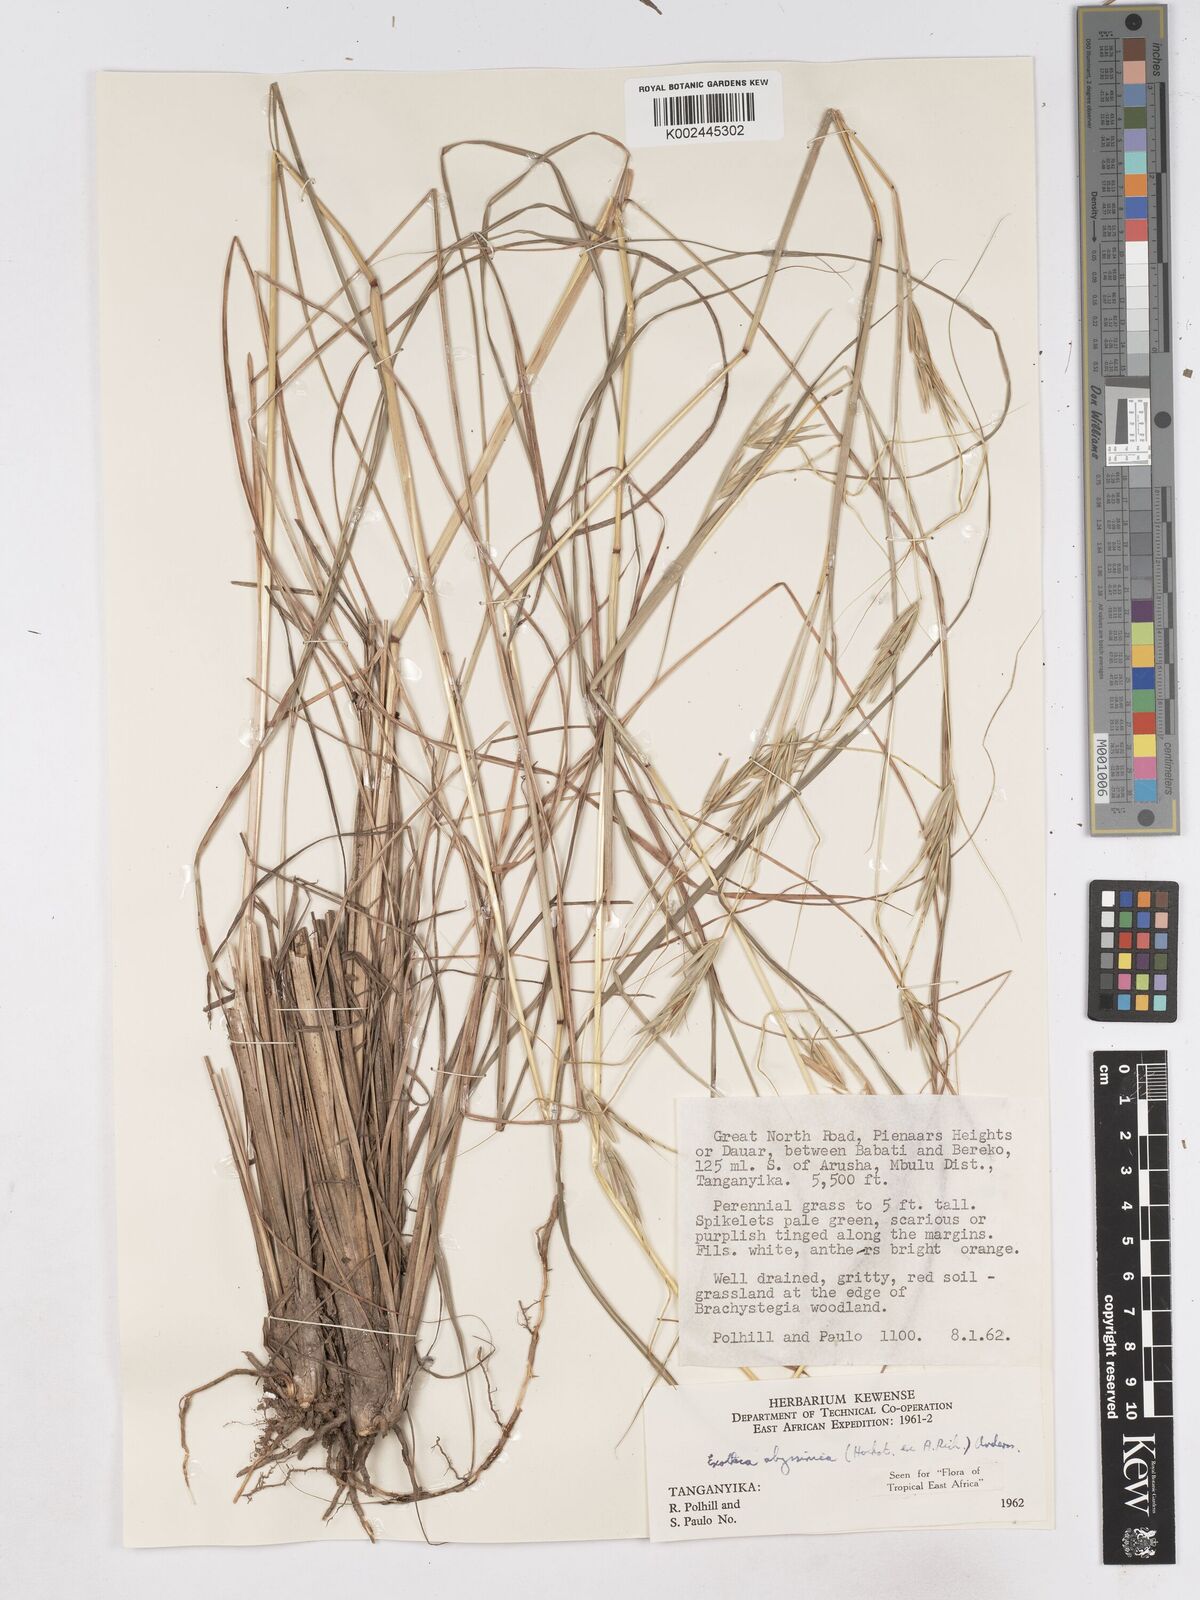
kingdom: Plantae
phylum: Tracheophyta
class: Liliopsida
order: Poales
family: Poaceae
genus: Exotheca
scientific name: Exotheca abyssinica
